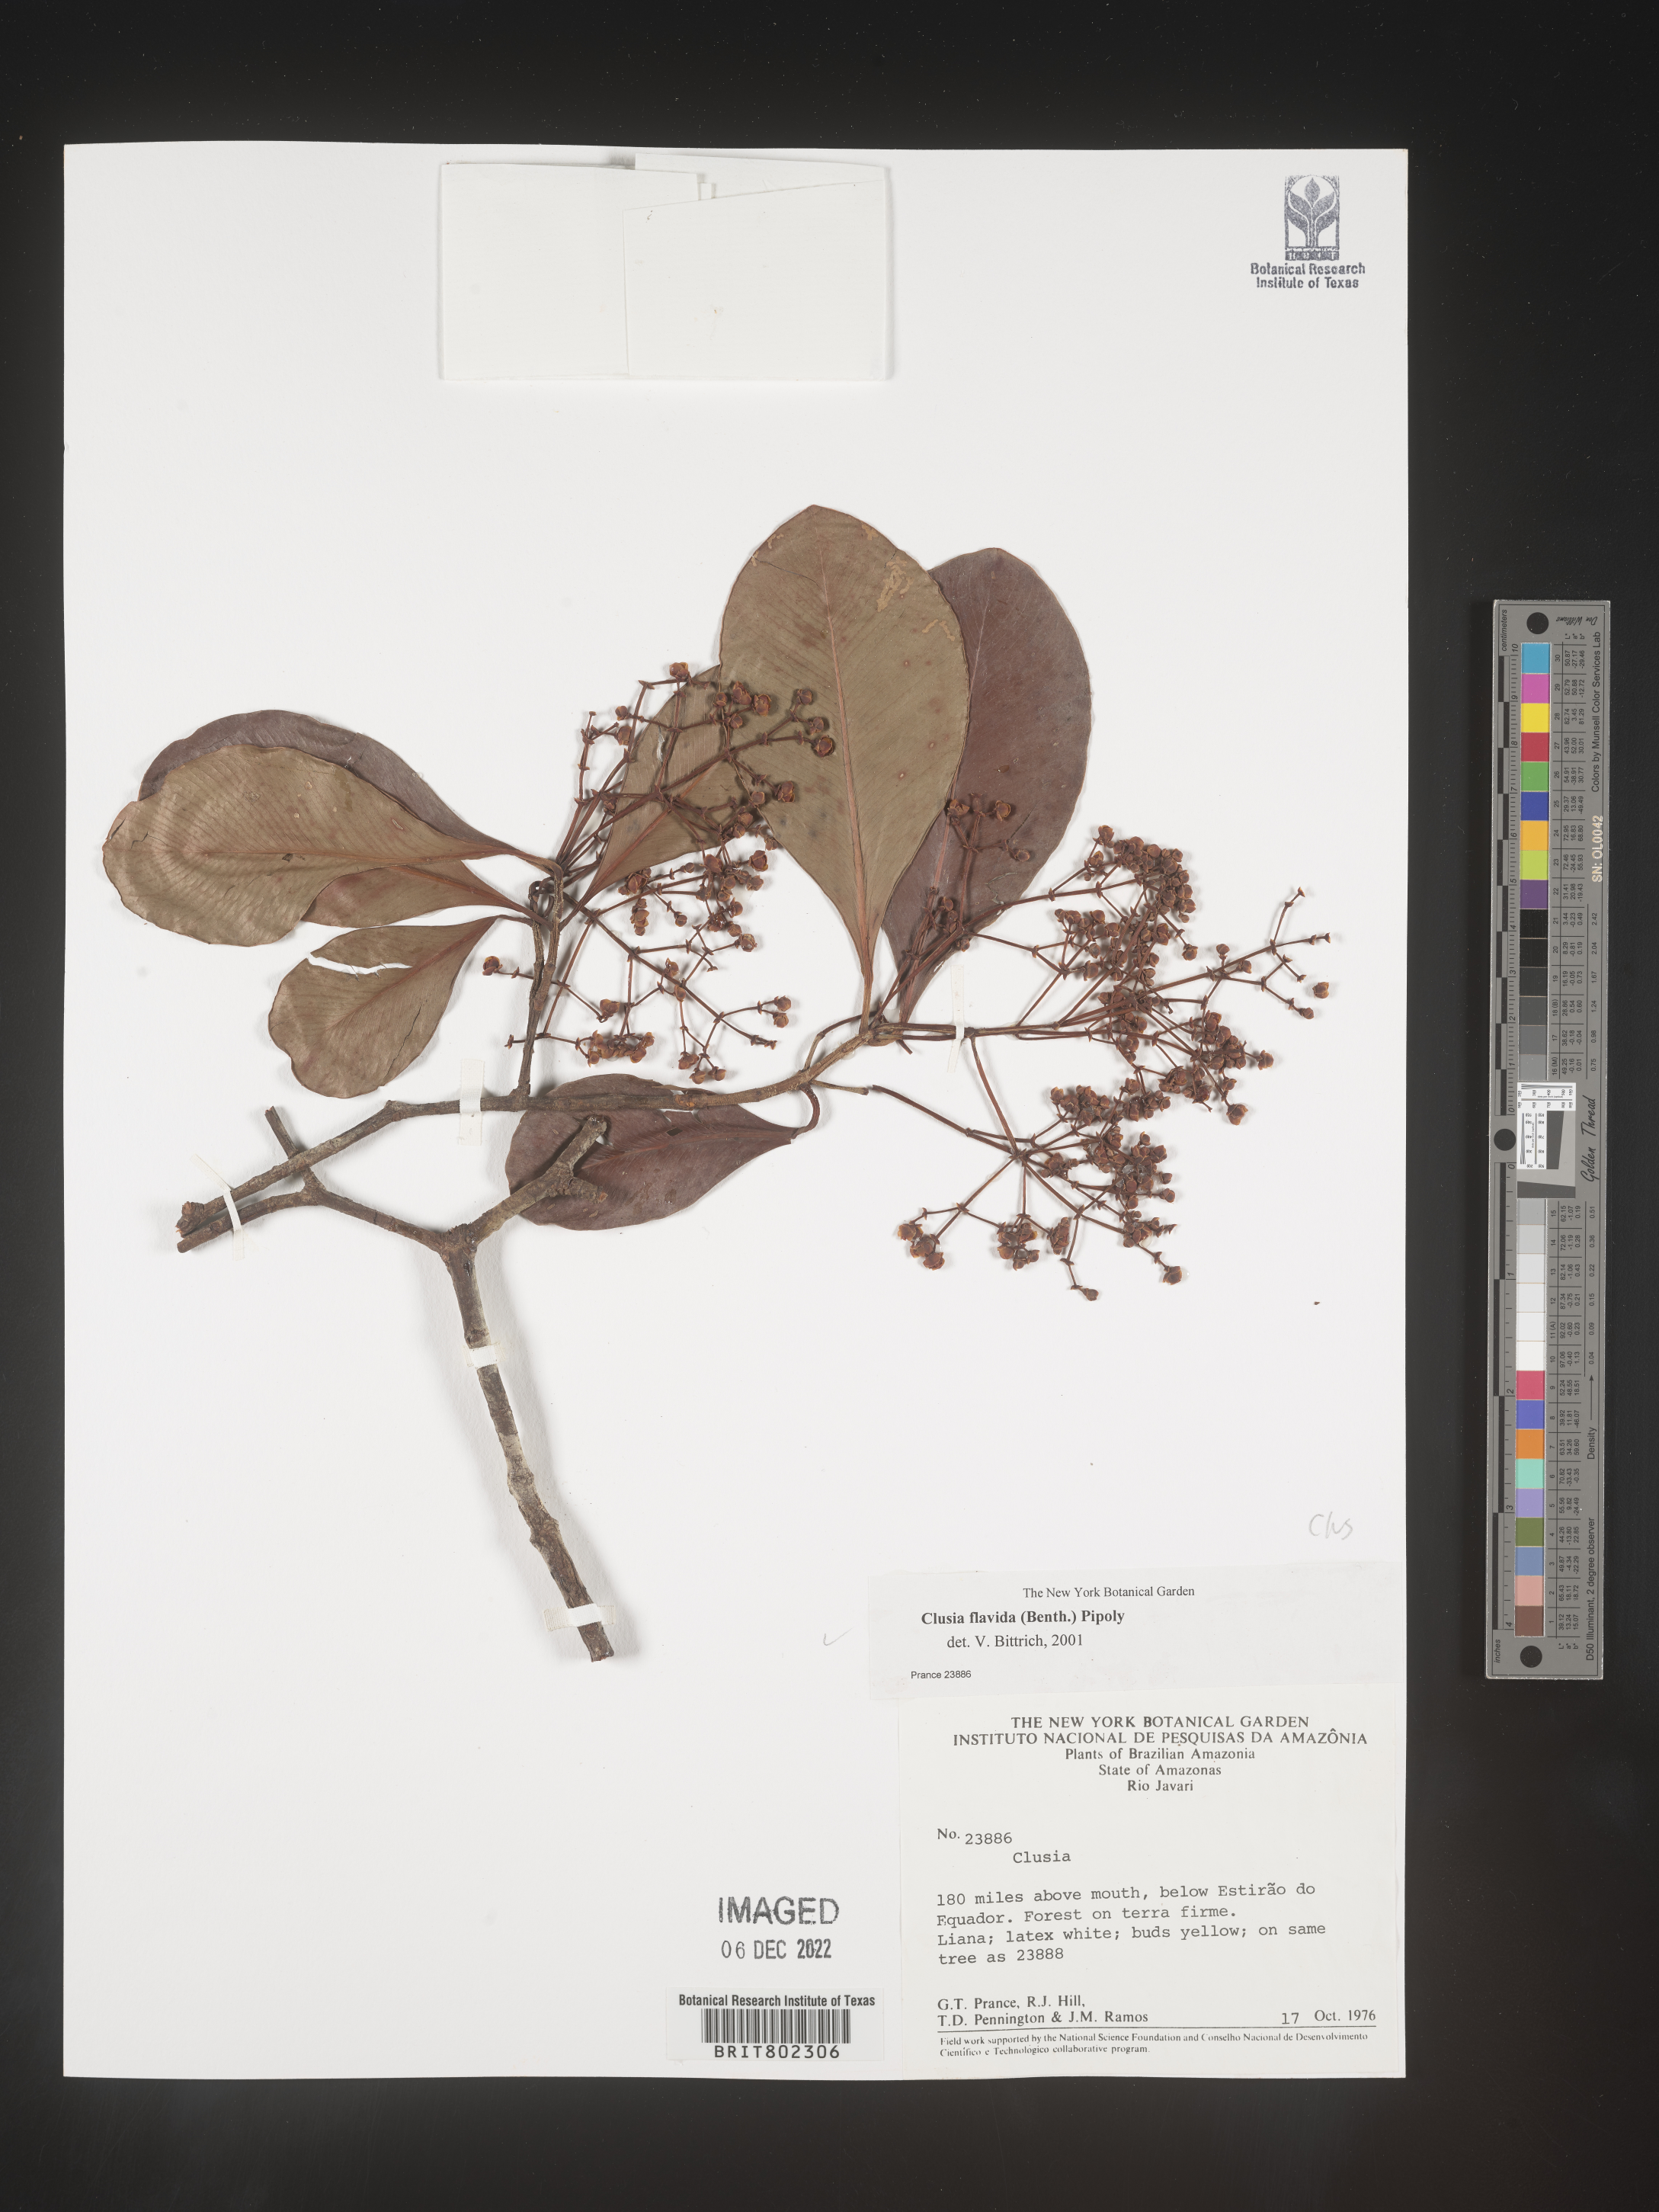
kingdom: Plantae
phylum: Tracheophyta
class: Magnoliopsida
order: Malpighiales
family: Clusiaceae
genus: Clusia
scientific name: Clusia flavida
